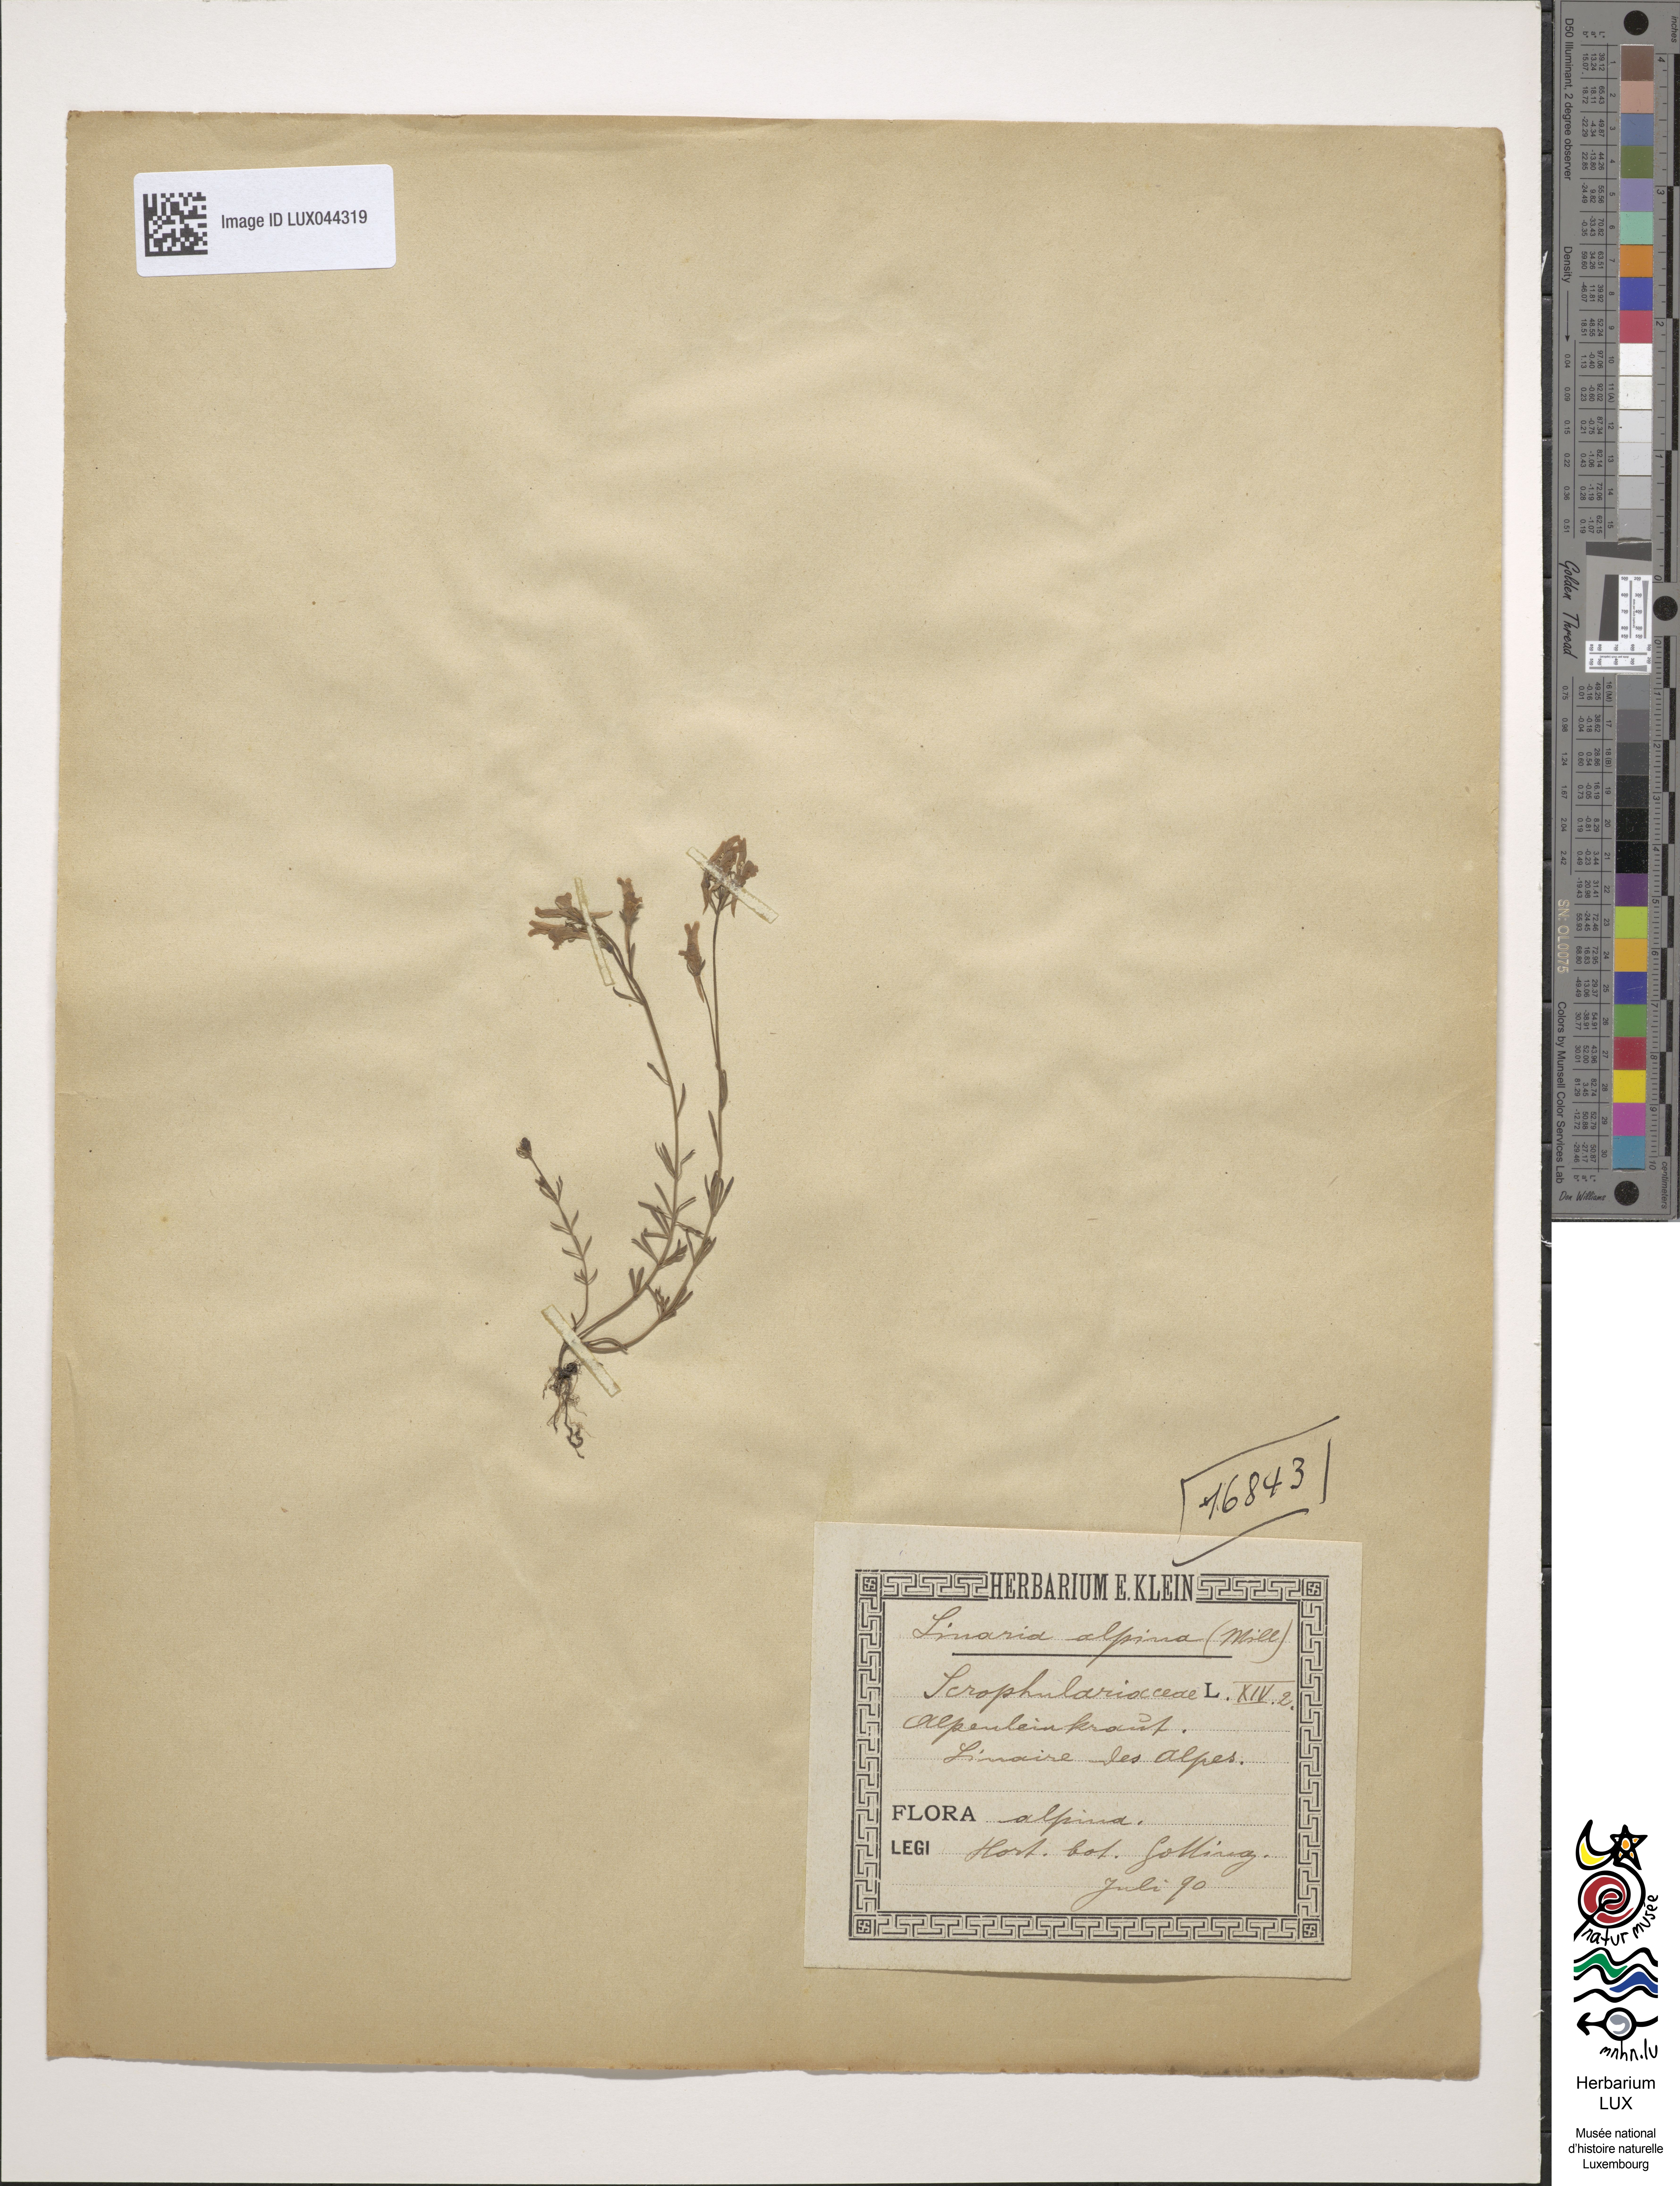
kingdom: Plantae
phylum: Tracheophyta
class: Magnoliopsida
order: Lamiales
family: Plantaginaceae
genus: Linaria
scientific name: Linaria alpina
